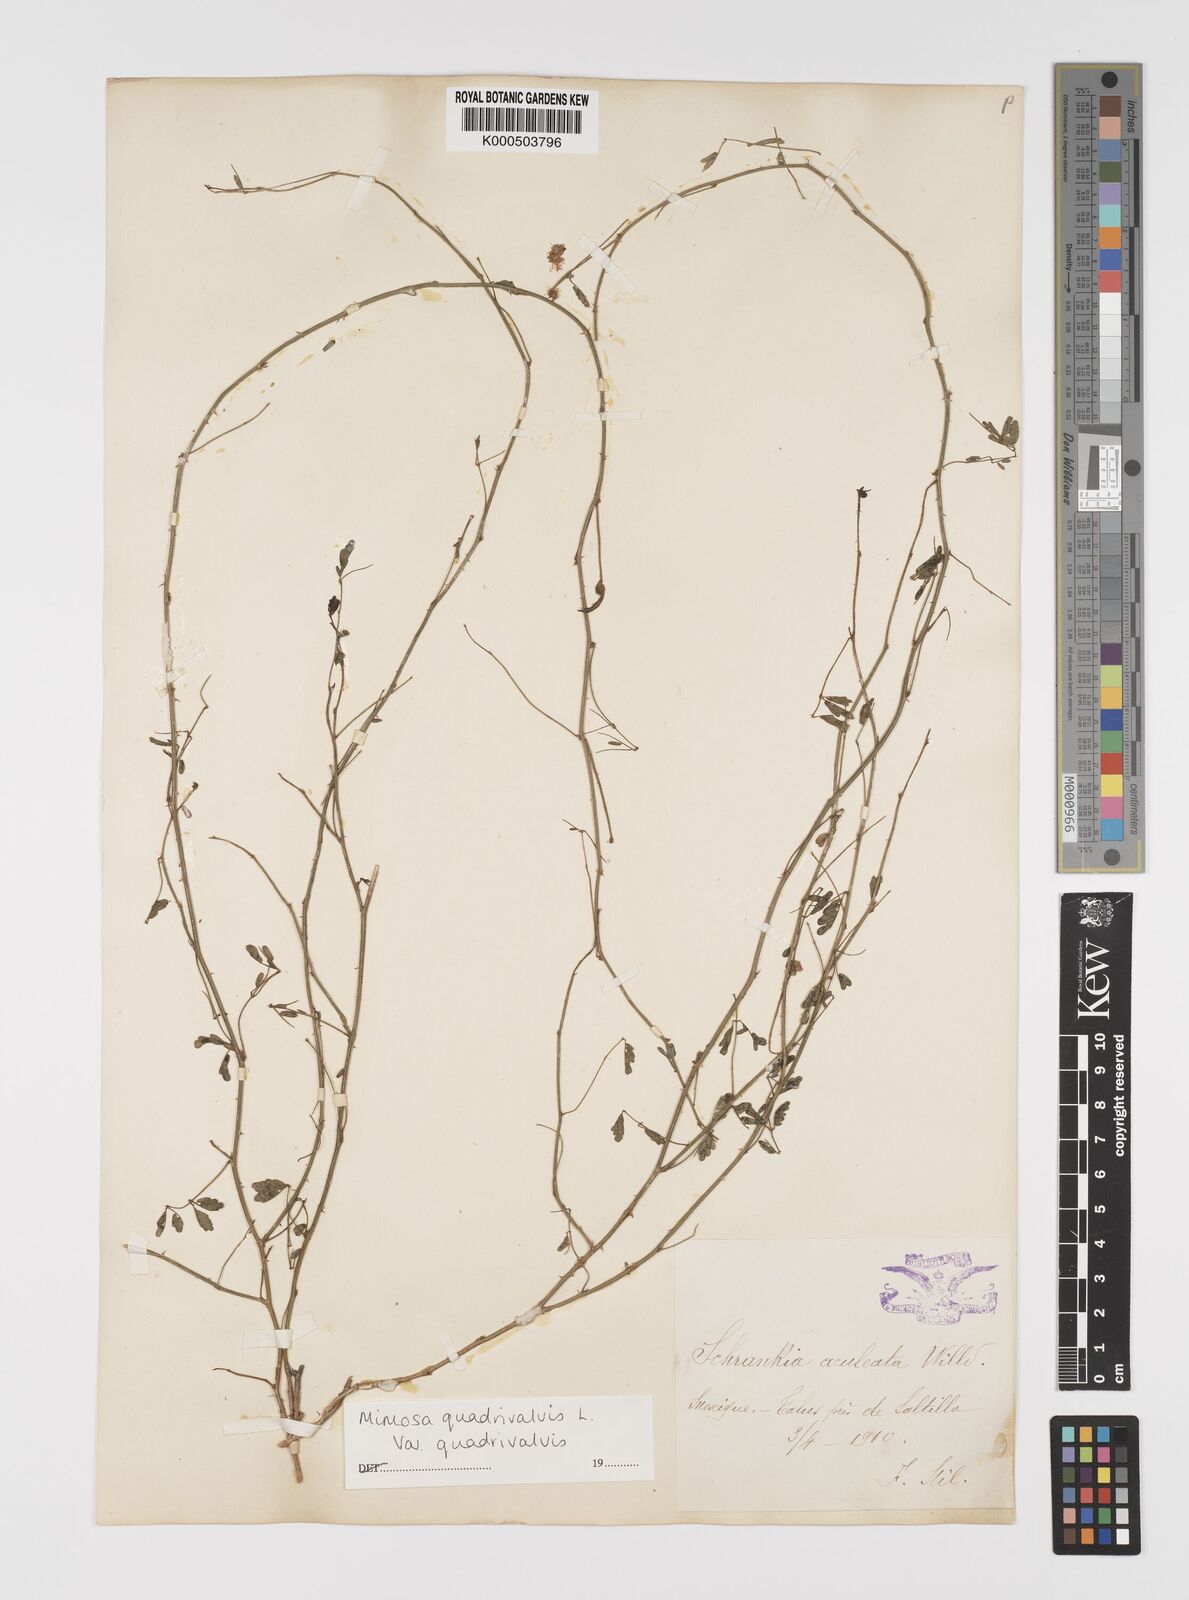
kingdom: Plantae
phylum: Tracheophyta
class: Magnoliopsida
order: Fabales
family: Fabaceae
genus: Mimosa
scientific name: Mimosa quadrivalvis
